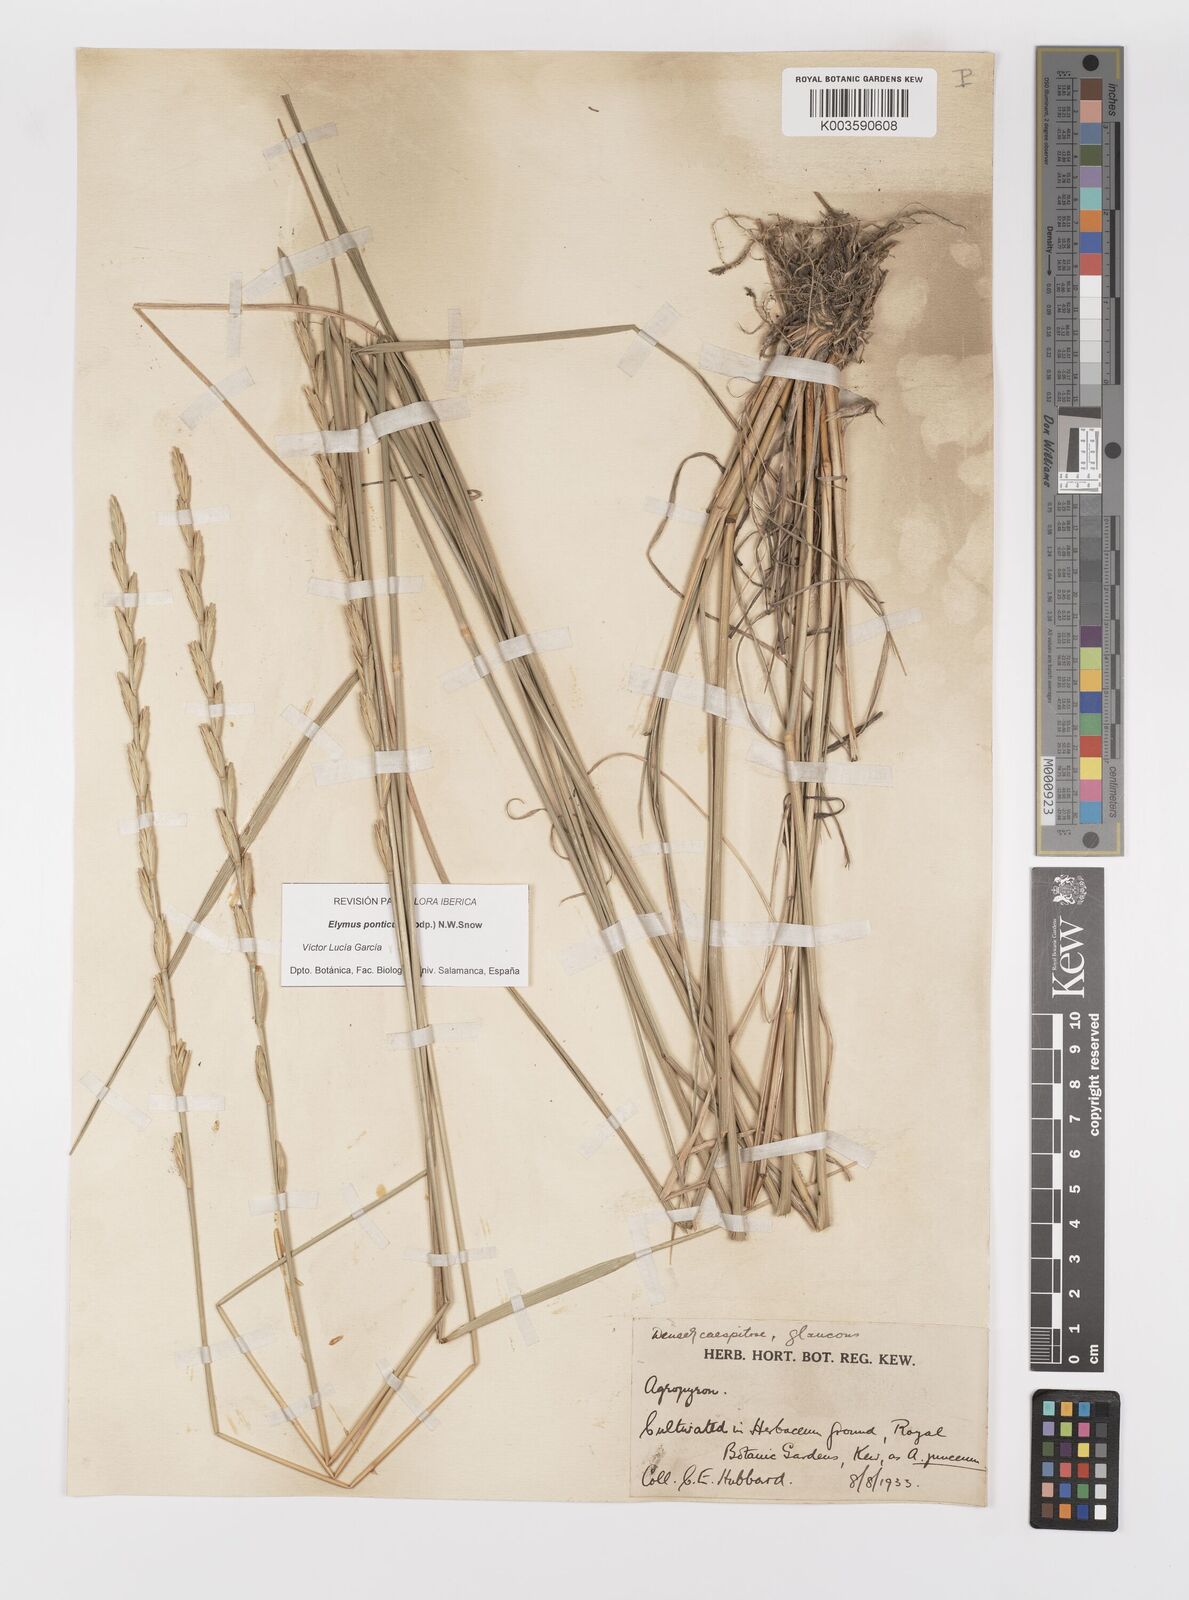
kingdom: Plantae
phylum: Tracheophyta
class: Liliopsida
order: Poales
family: Poaceae
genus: Thinopyrum
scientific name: Thinopyrum elongatum
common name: Tall wheatgrass
